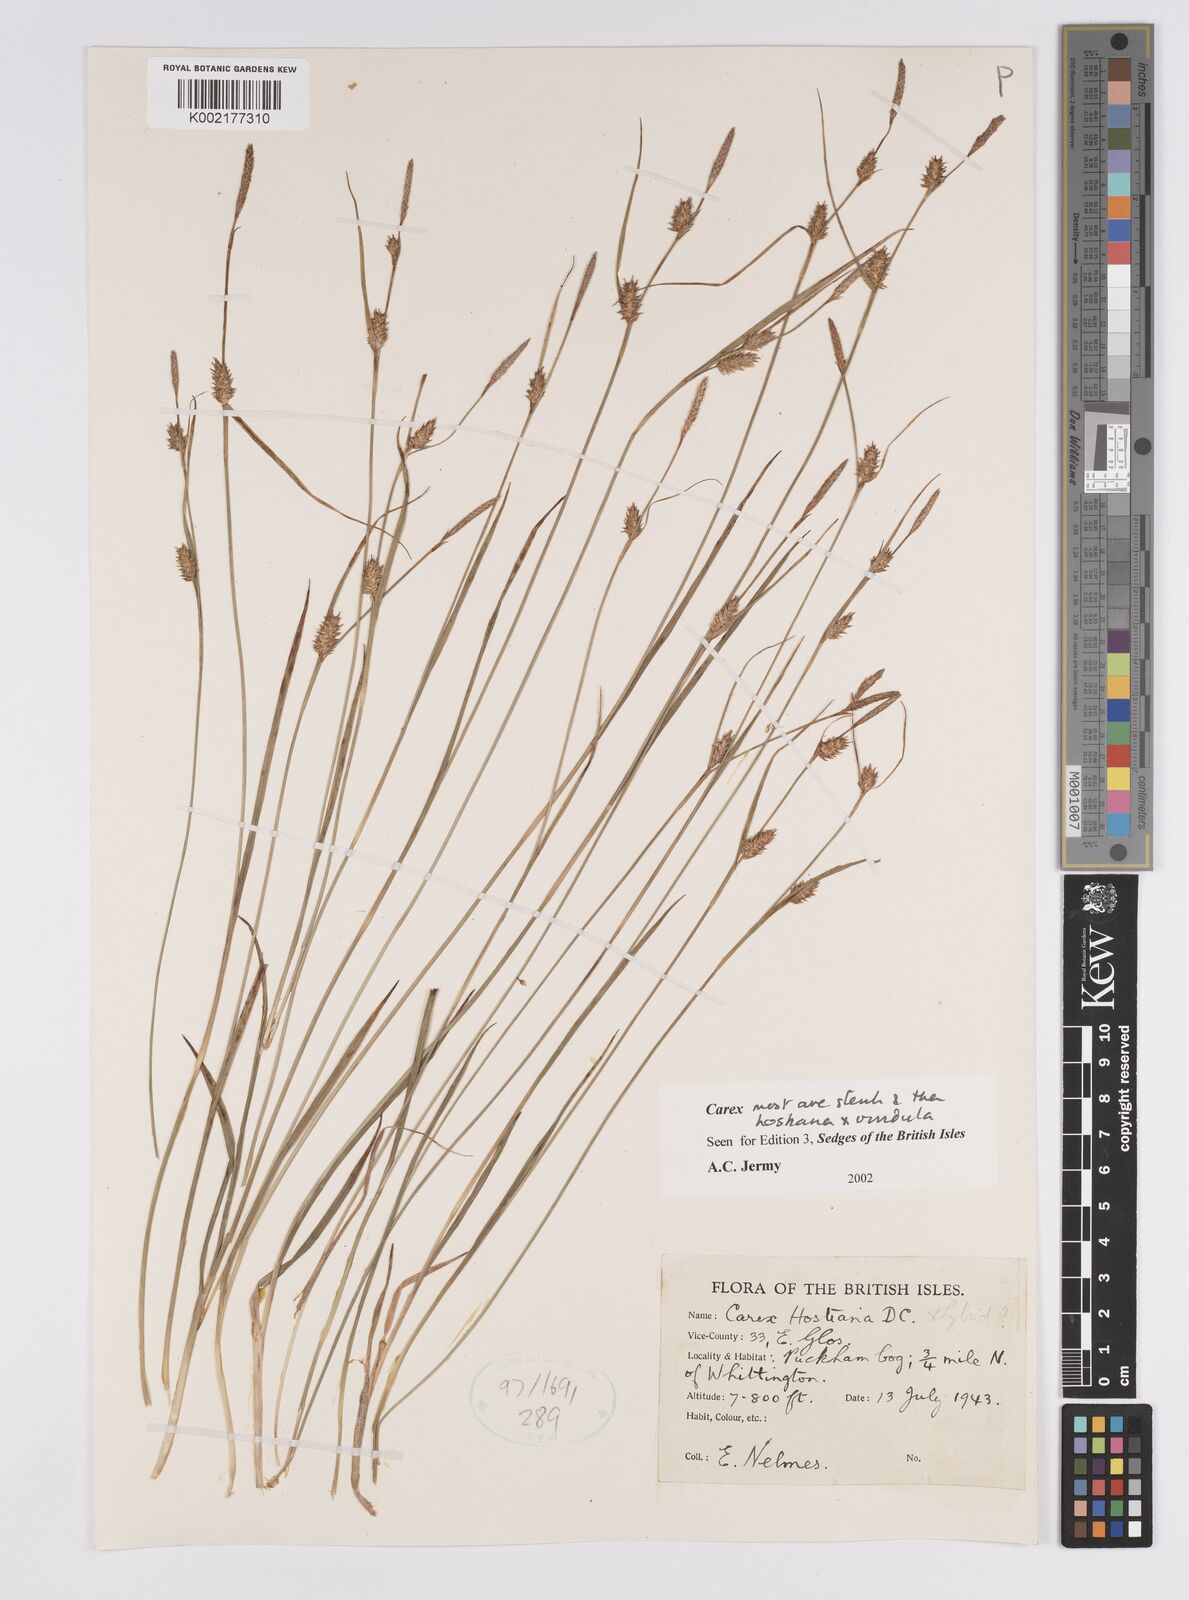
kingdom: Plantae
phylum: Tracheophyta
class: Liliopsida
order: Poales
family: Cyperaceae
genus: Carex
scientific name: Carex hostiana
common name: Tawny sedge
